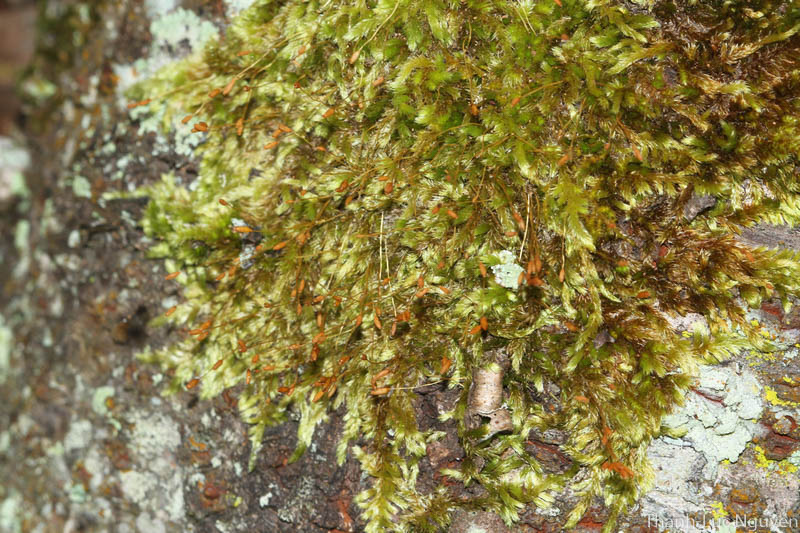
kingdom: Plantae
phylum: Bryophyta
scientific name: Bryophyta
